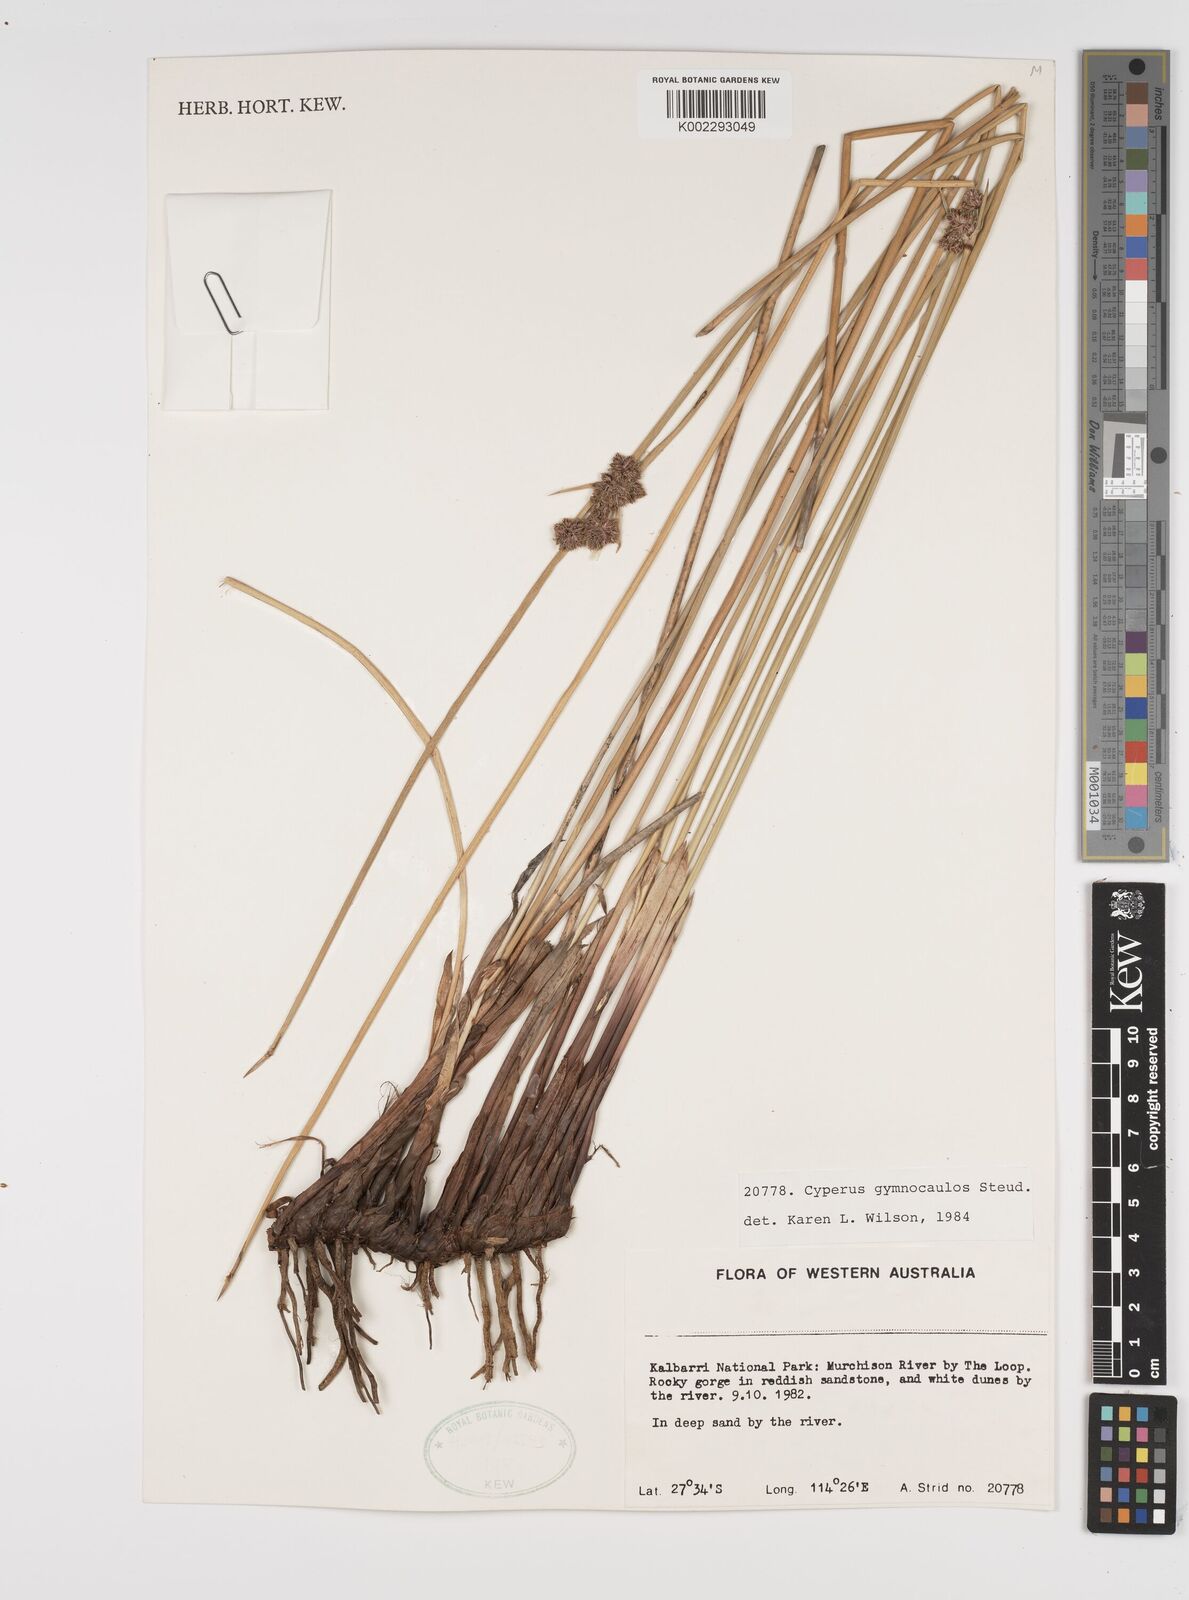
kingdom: Plantae
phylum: Tracheophyta
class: Liliopsida
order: Poales
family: Cyperaceae
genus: Cyperus
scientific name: Cyperus vaginatus
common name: Stiff-leaved flat-sedge
